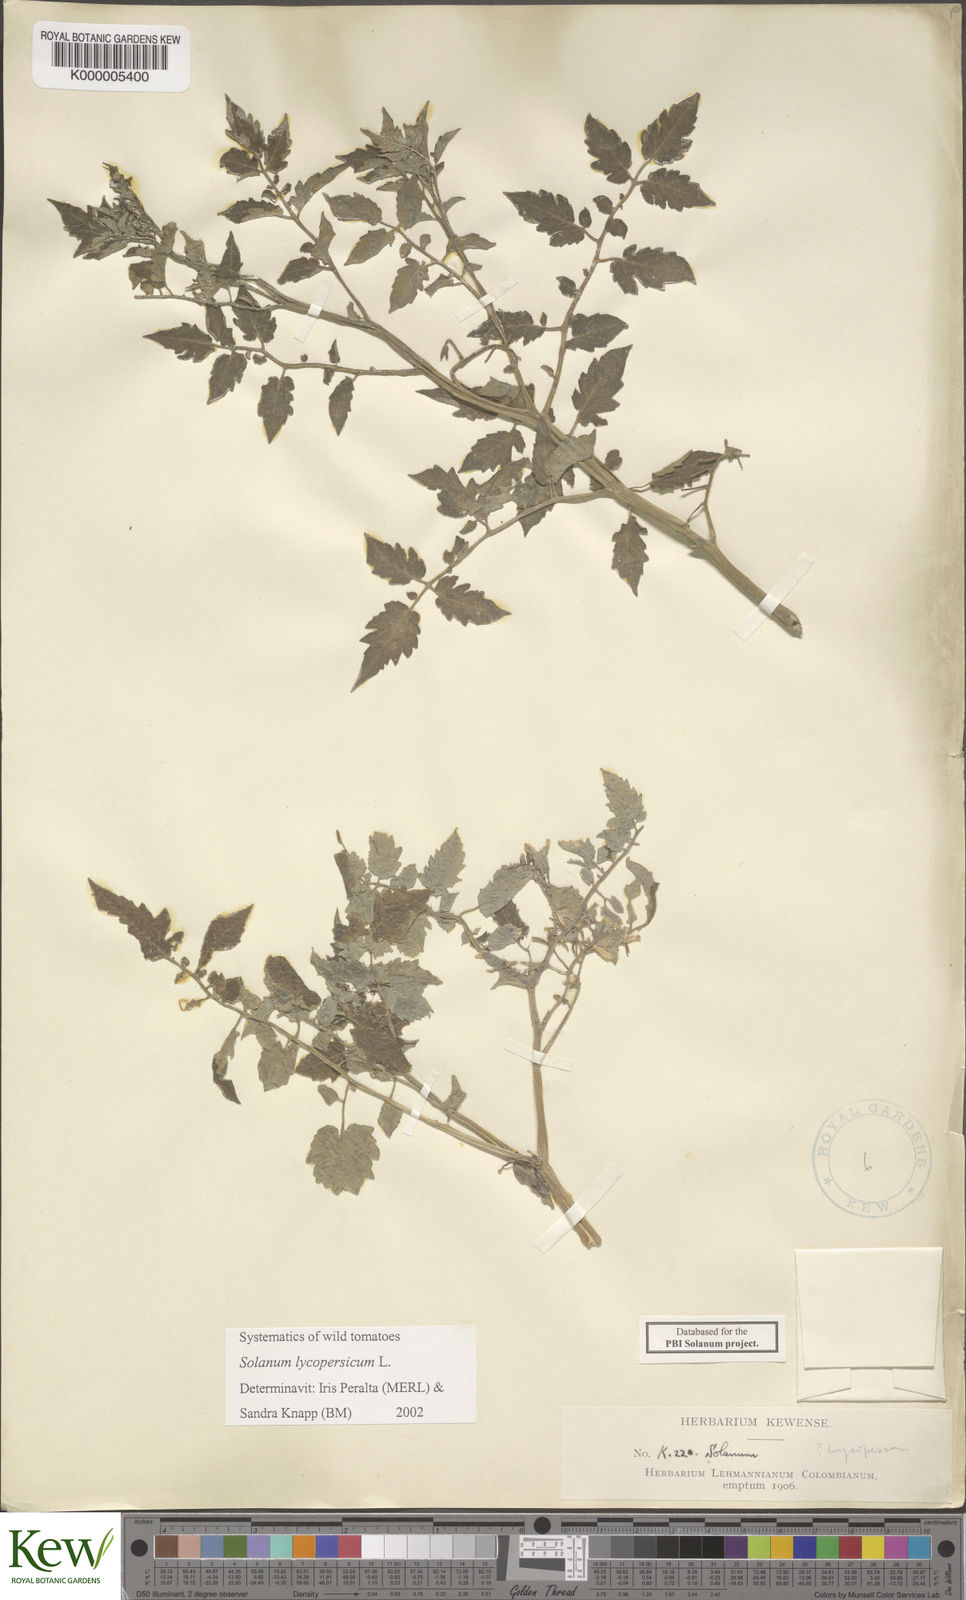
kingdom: Plantae
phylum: Tracheophyta
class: Magnoliopsida
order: Solanales
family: Solanaceae
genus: Solanum
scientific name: Solanum lycopersicum
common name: Garden tomato
